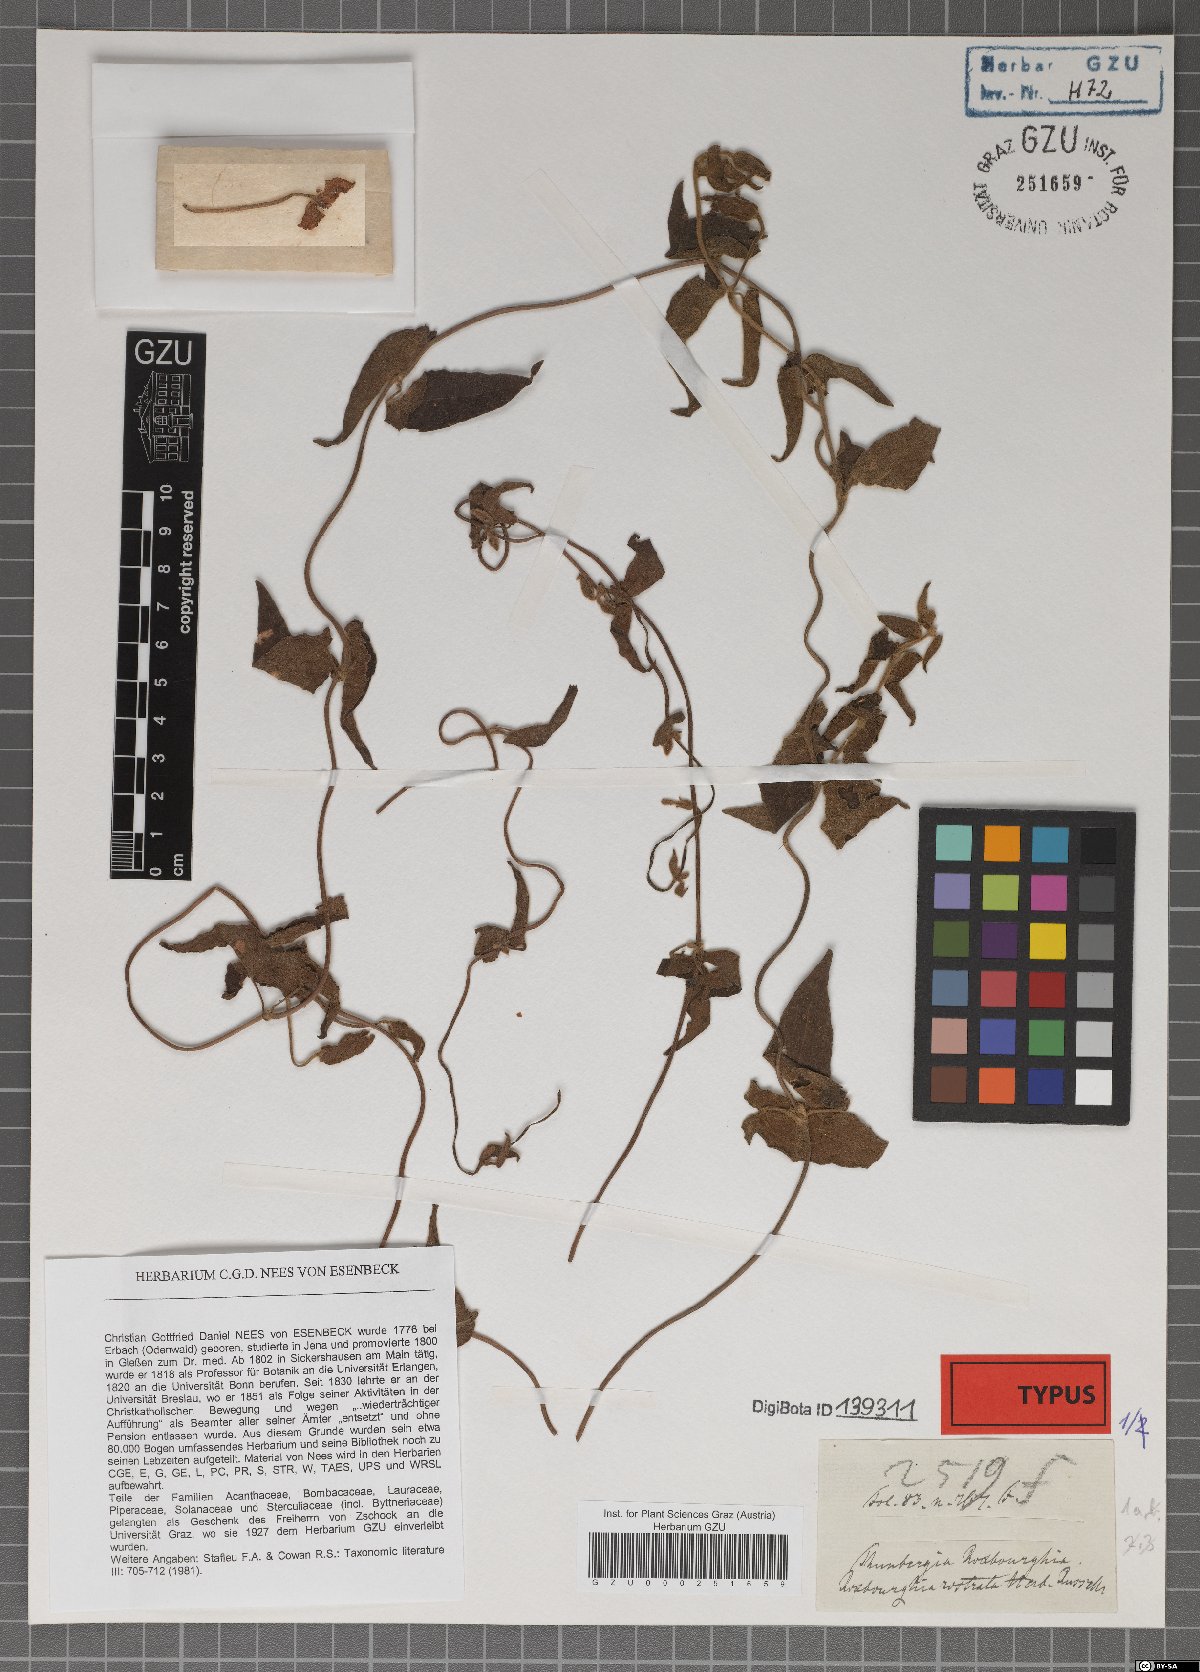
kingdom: Plantae
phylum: Tracheophyta
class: Magnoliopsida
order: Lamiales
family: Acanthaceae
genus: Thunbergia
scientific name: Thunbergia fragrans
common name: Whitelady
